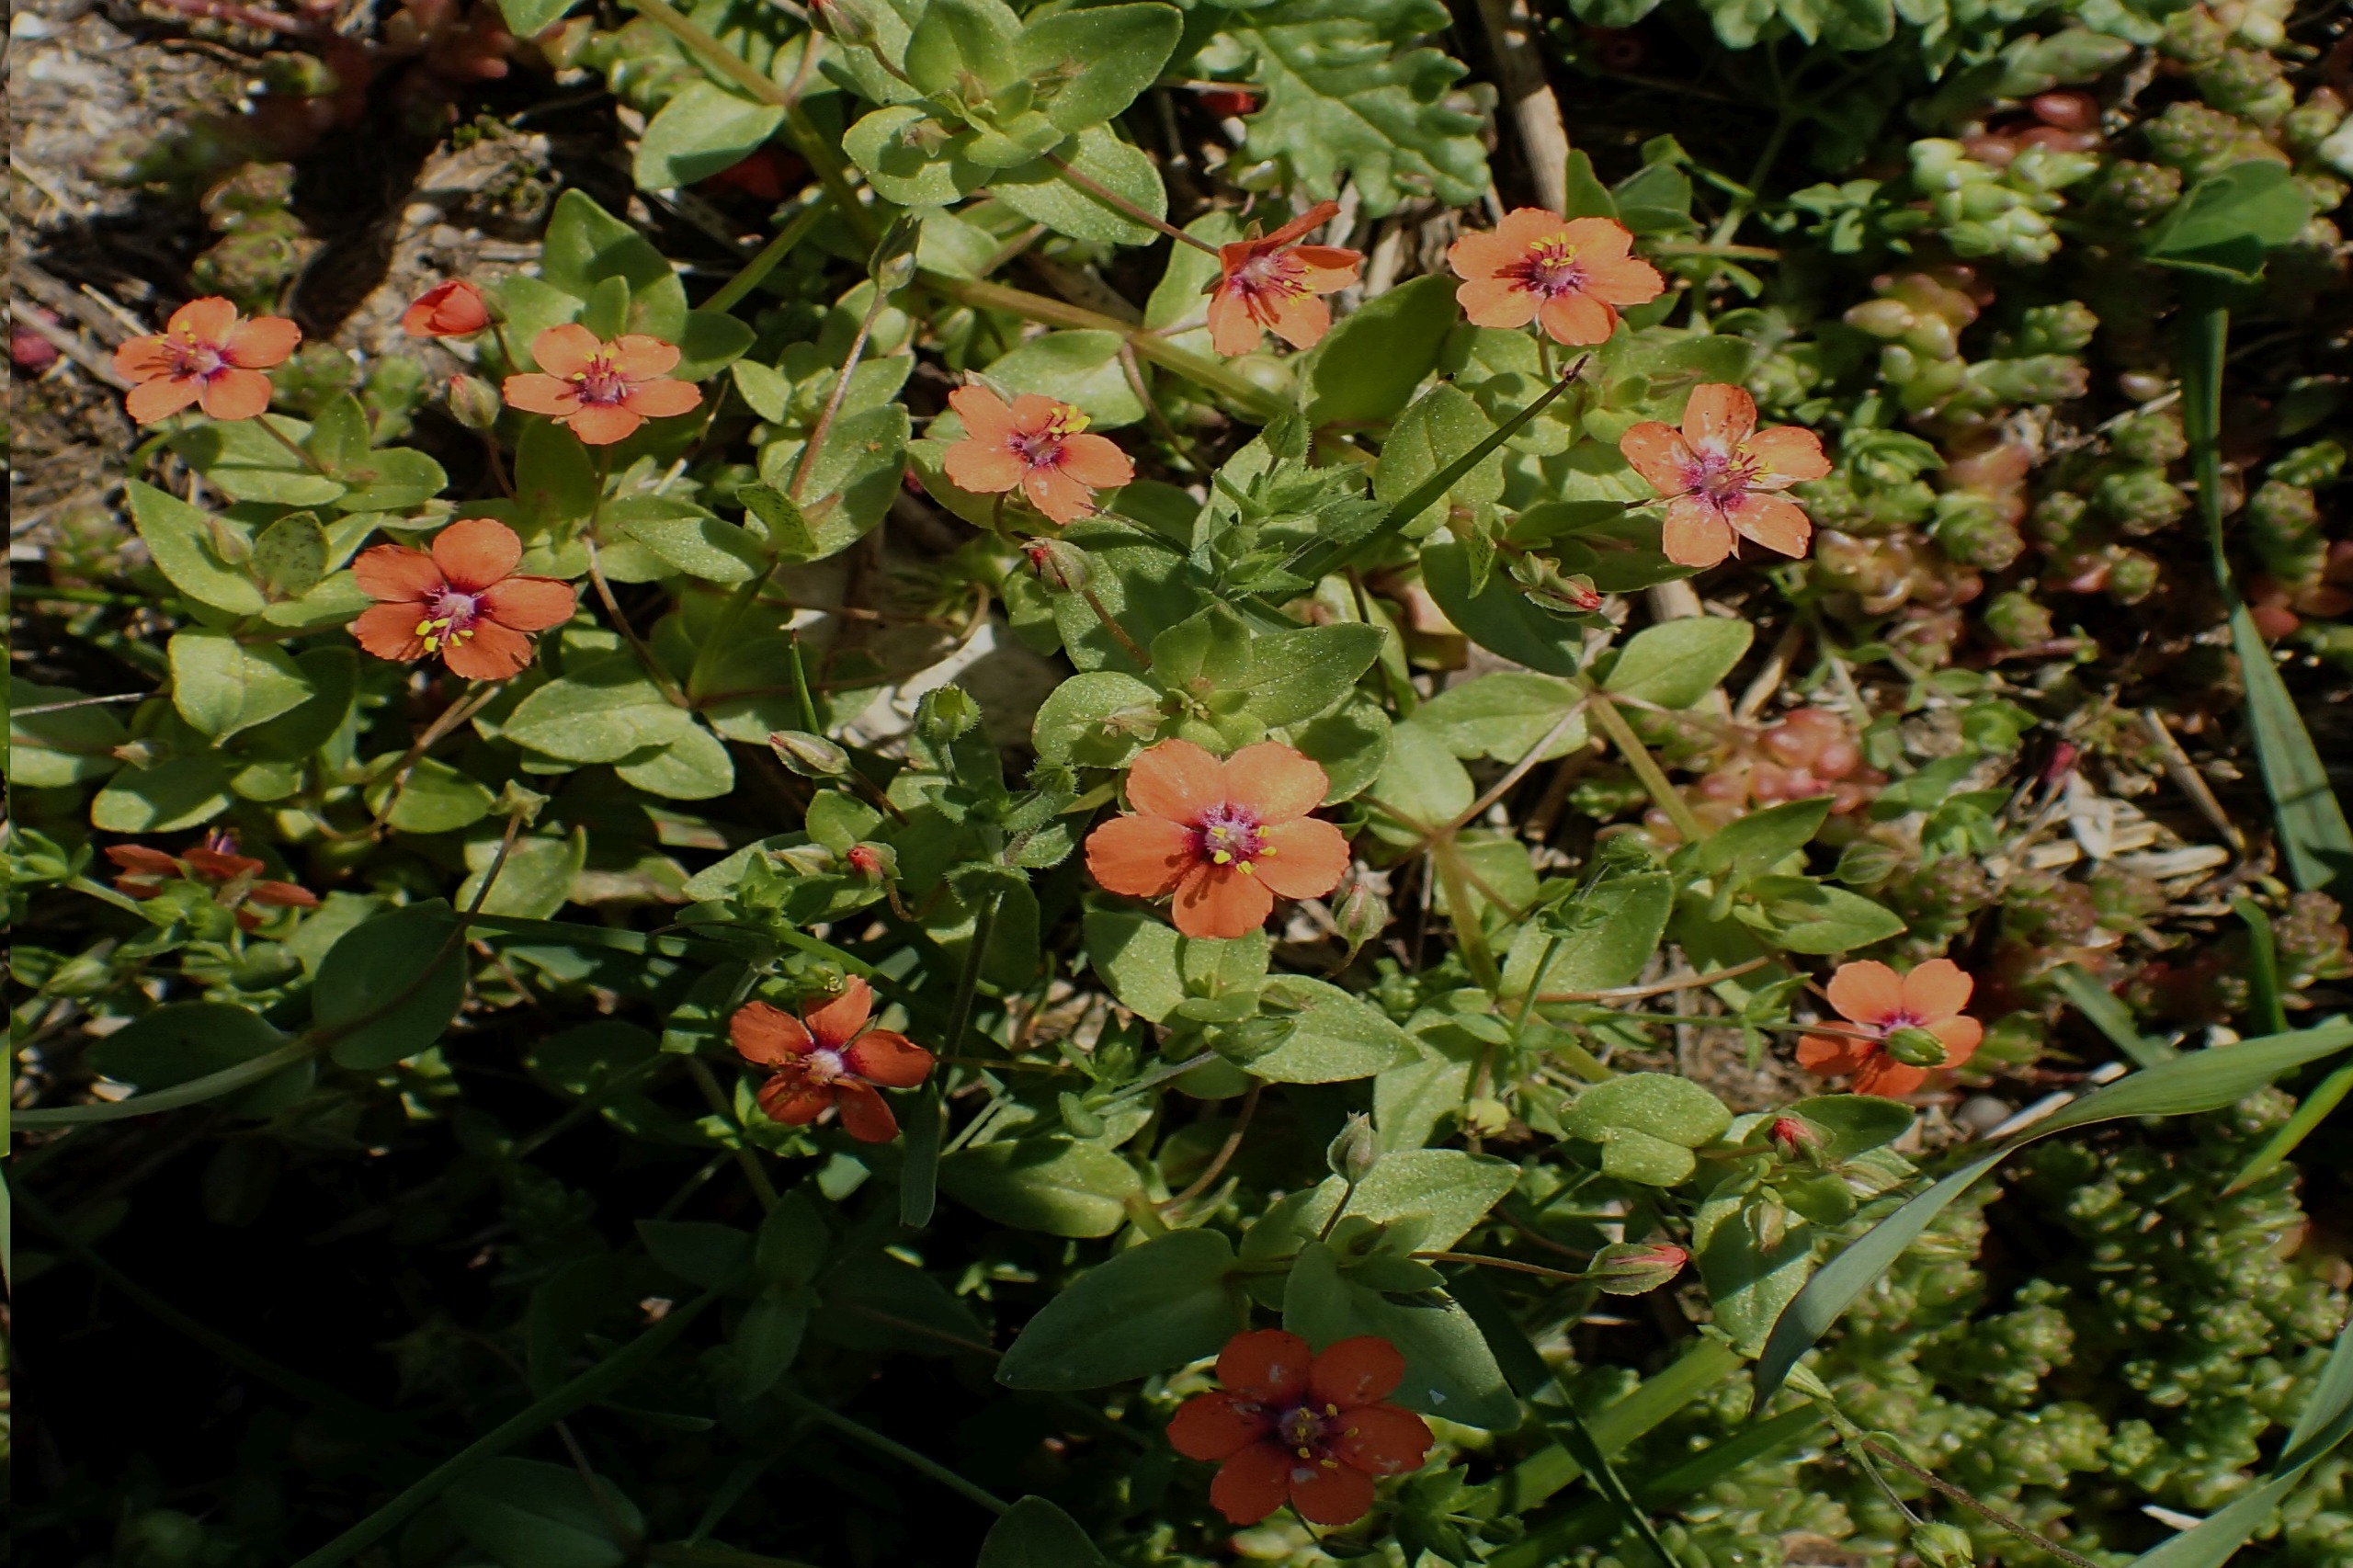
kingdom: Plantae
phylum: Tracheophyta
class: Magnoliopsida
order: Ericales
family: Primulaceae
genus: Lysimachia
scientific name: Lysimachia arvensis
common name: Rød arve
